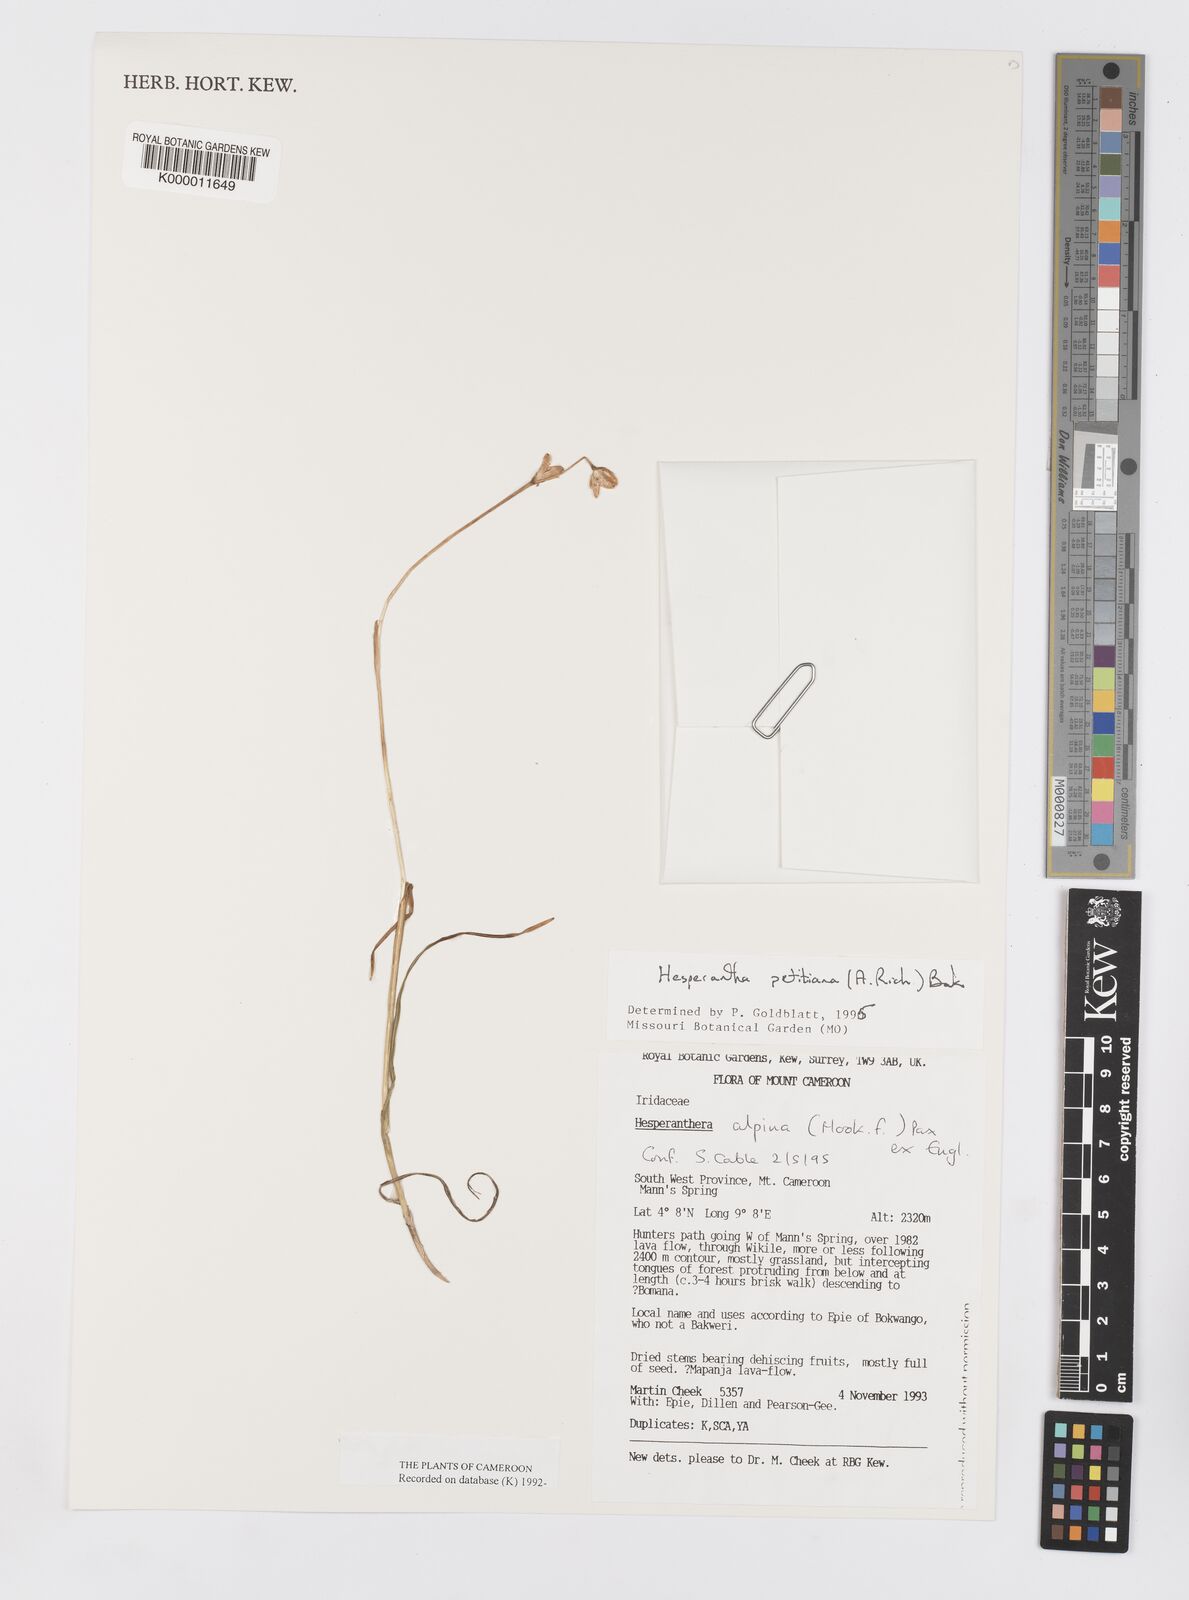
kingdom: Plantae
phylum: Tracheophyta
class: Liliopsida
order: Asparagales
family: Iridaceae
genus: Hesperantha
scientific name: Hesperantha petitiana
